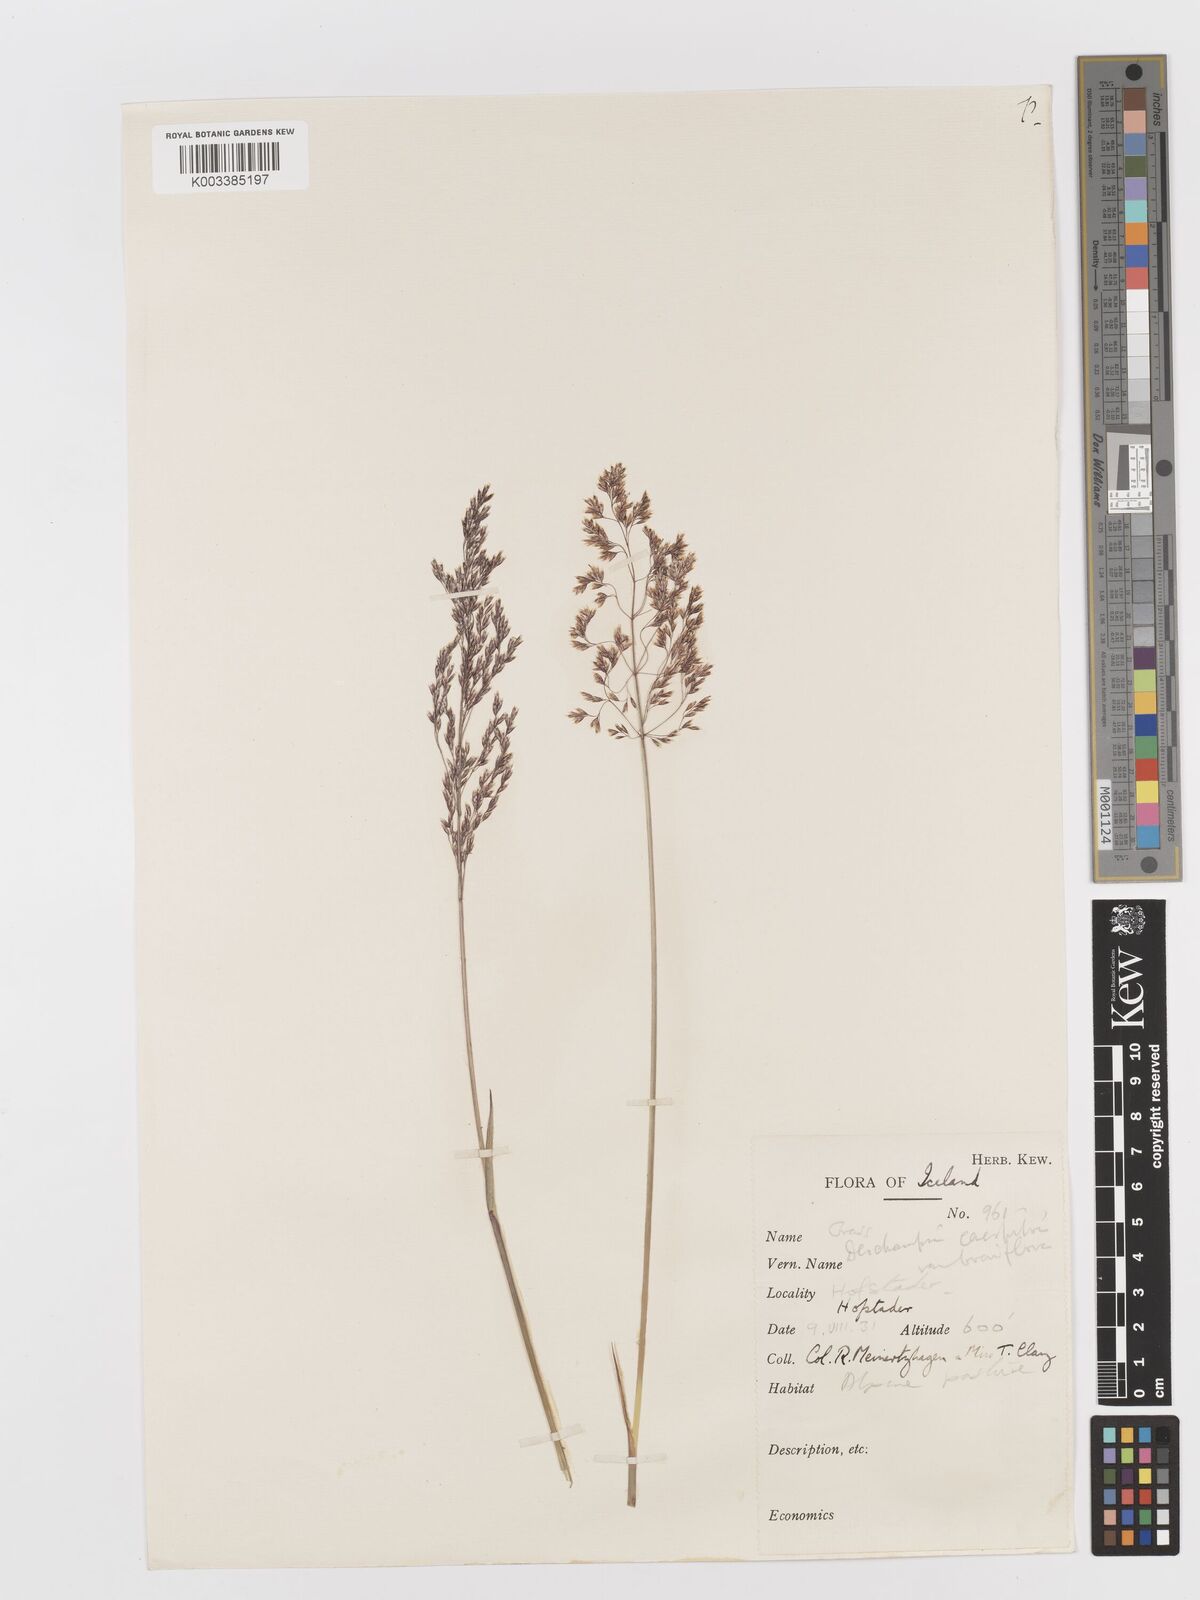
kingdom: Plantae
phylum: Tracheophyta
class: Liliopsida
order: Poales
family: Poaceae
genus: Deschampsia
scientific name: Deschampsia cespitosa
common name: Tufted hair-grass
